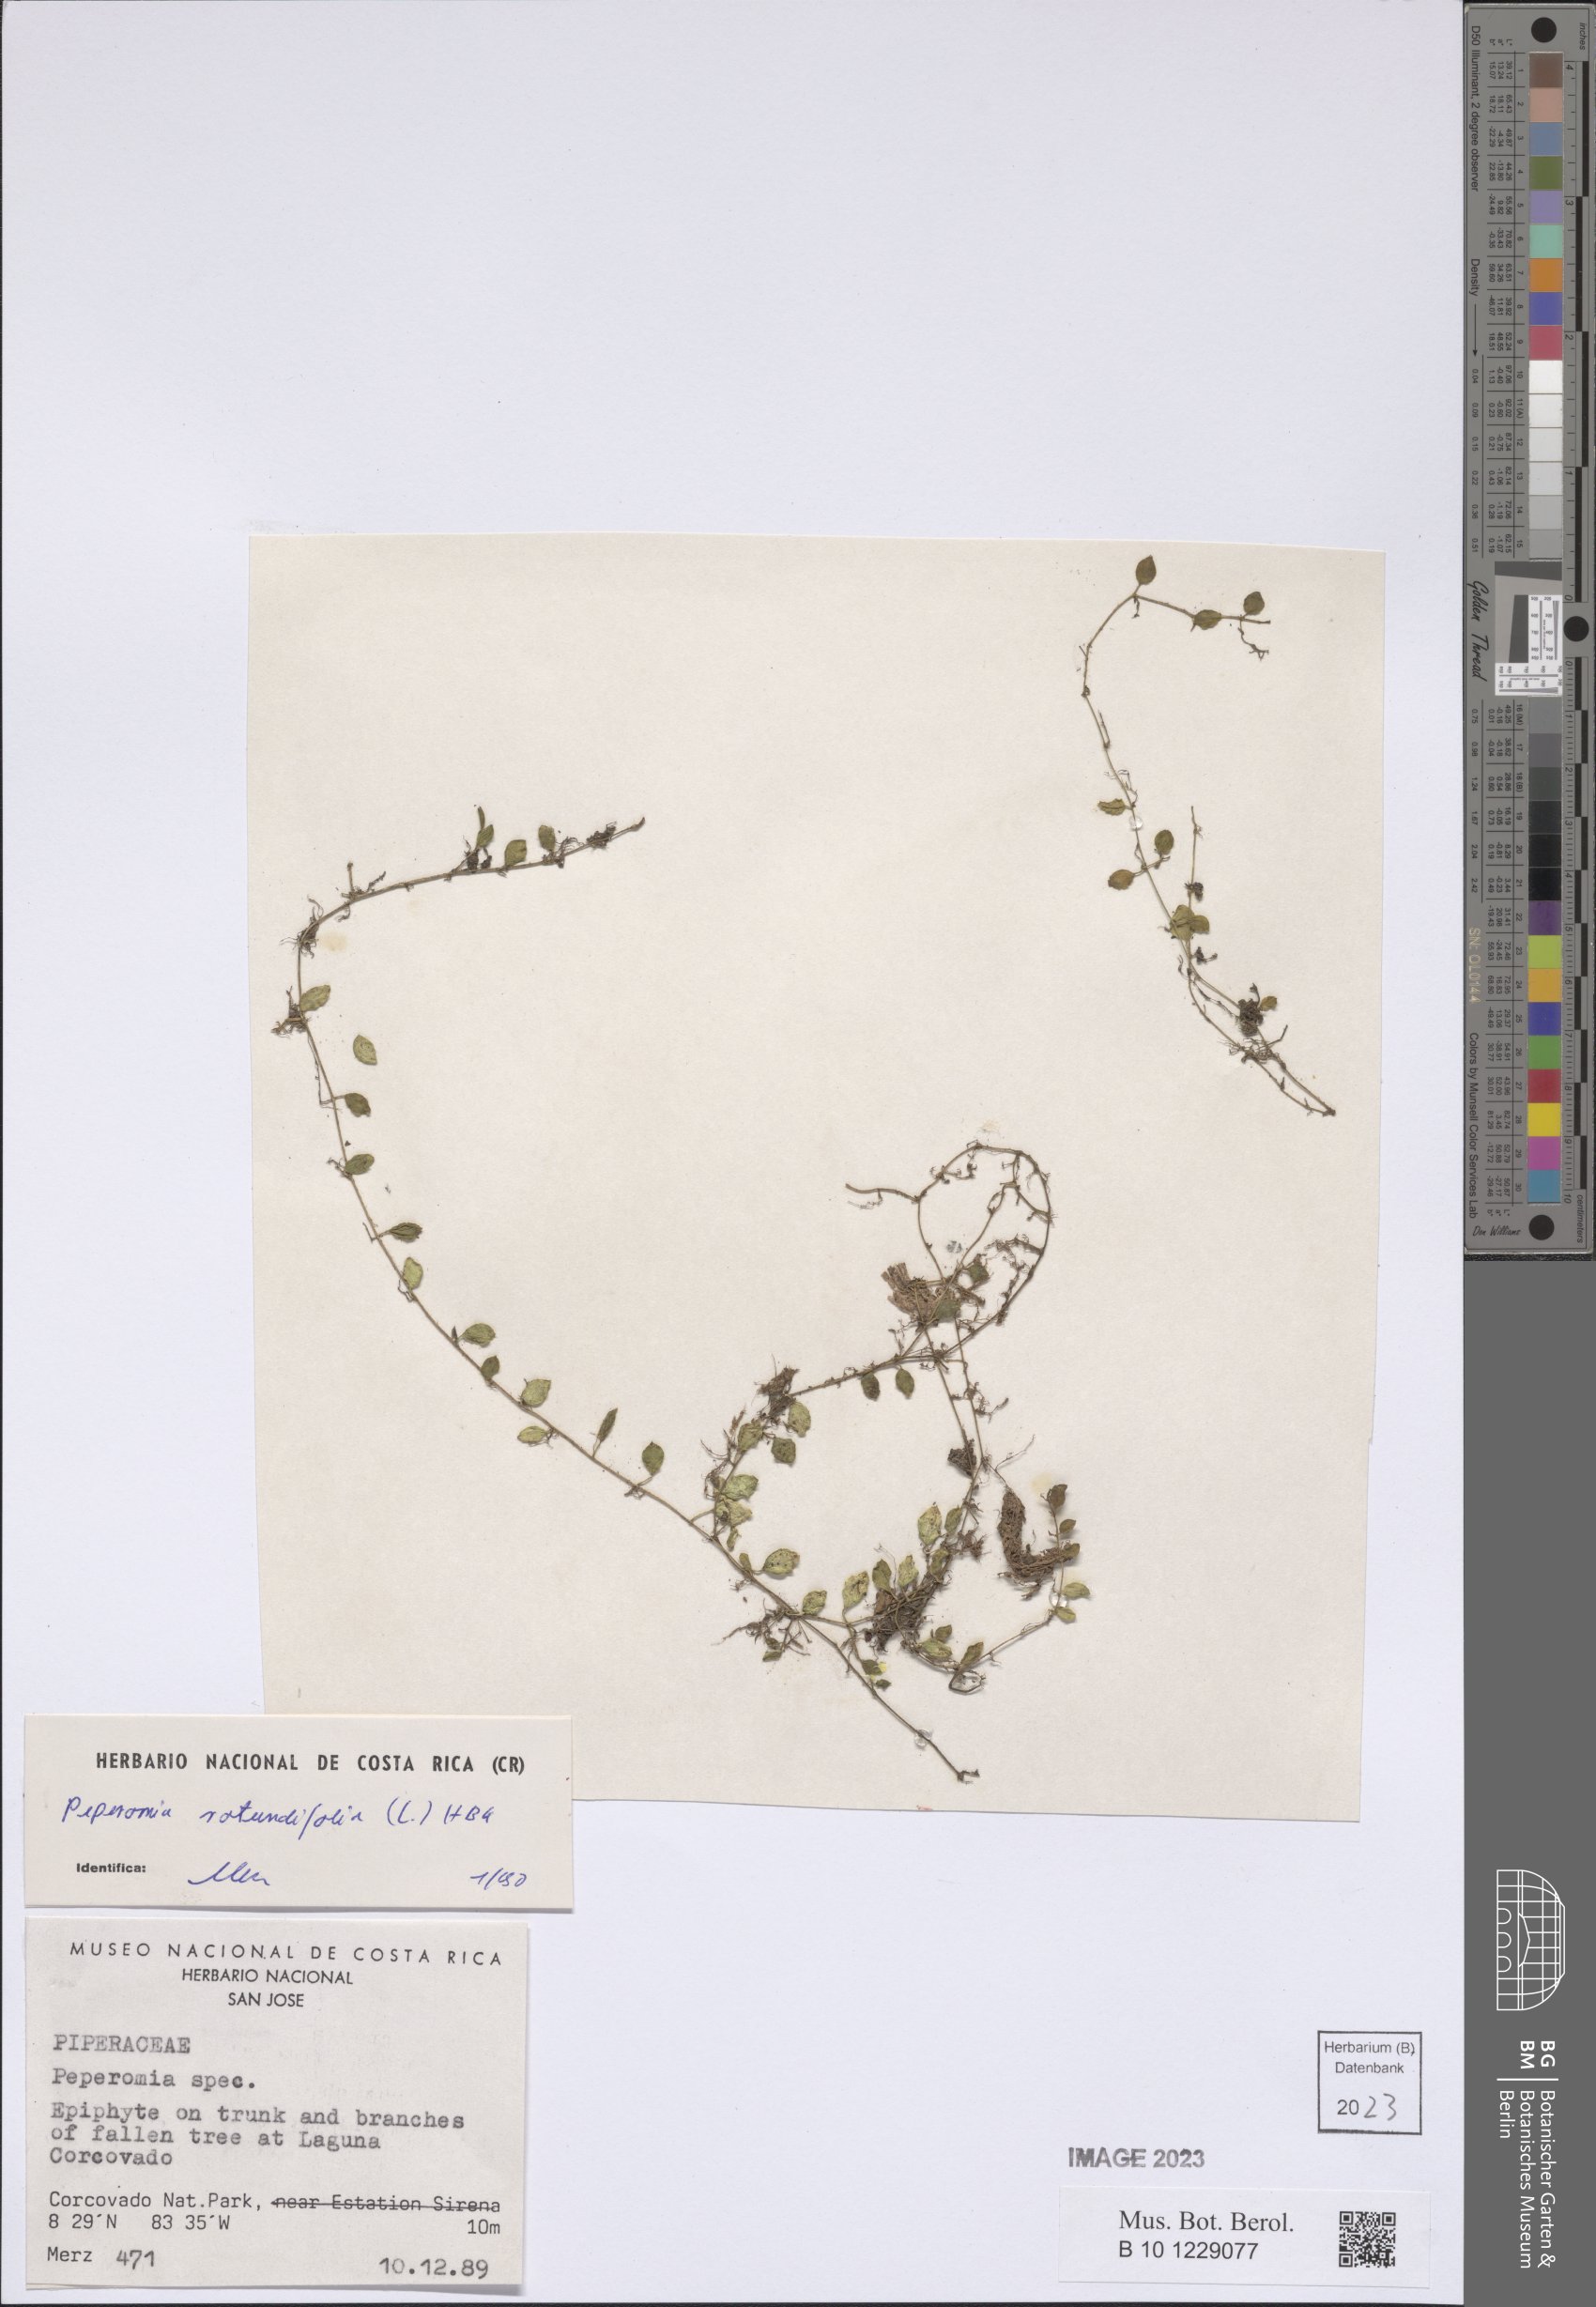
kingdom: Plantae
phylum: Tracheophyta
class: Magnoliopsida
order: Piperales
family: Piperaceae
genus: Peperomia
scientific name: Peperomia rotundifolia
